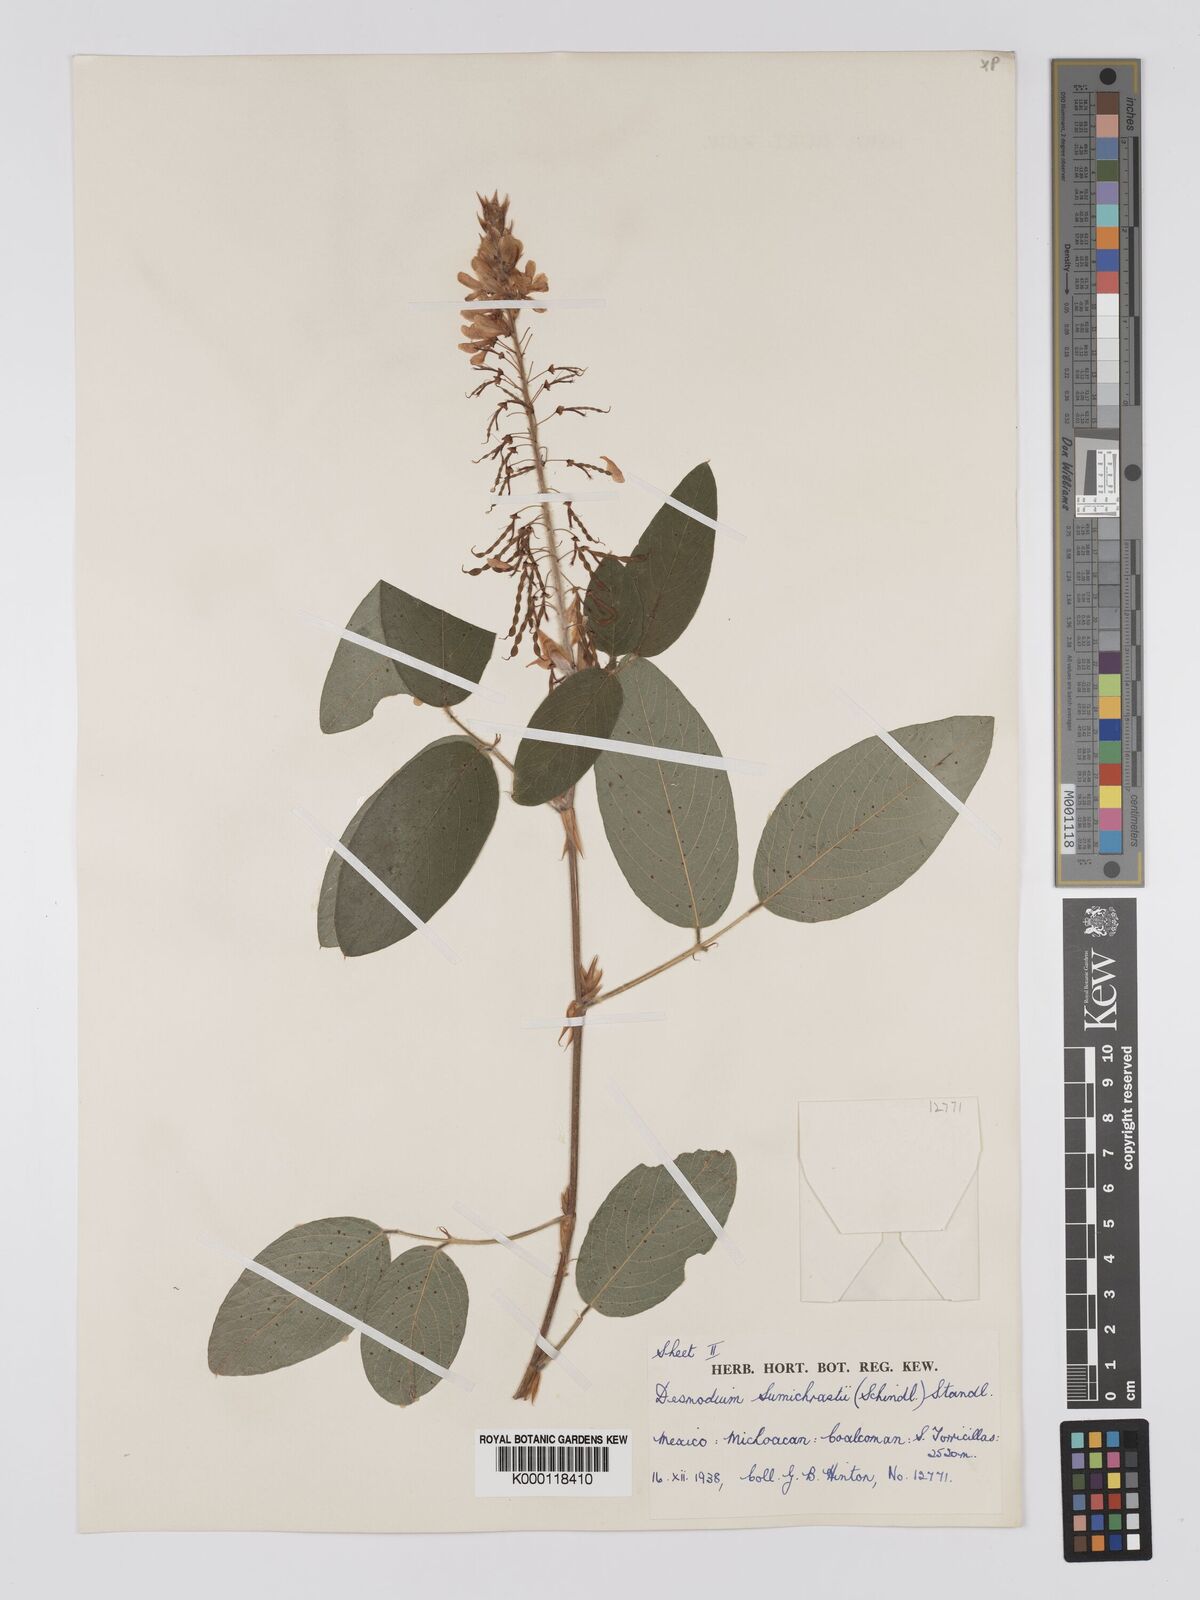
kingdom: Plantae
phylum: Tracheophyta
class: Magnoliopsida
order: Fabales
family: Fabaceae
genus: Desmodium
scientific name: Desmodium sumichrastii
